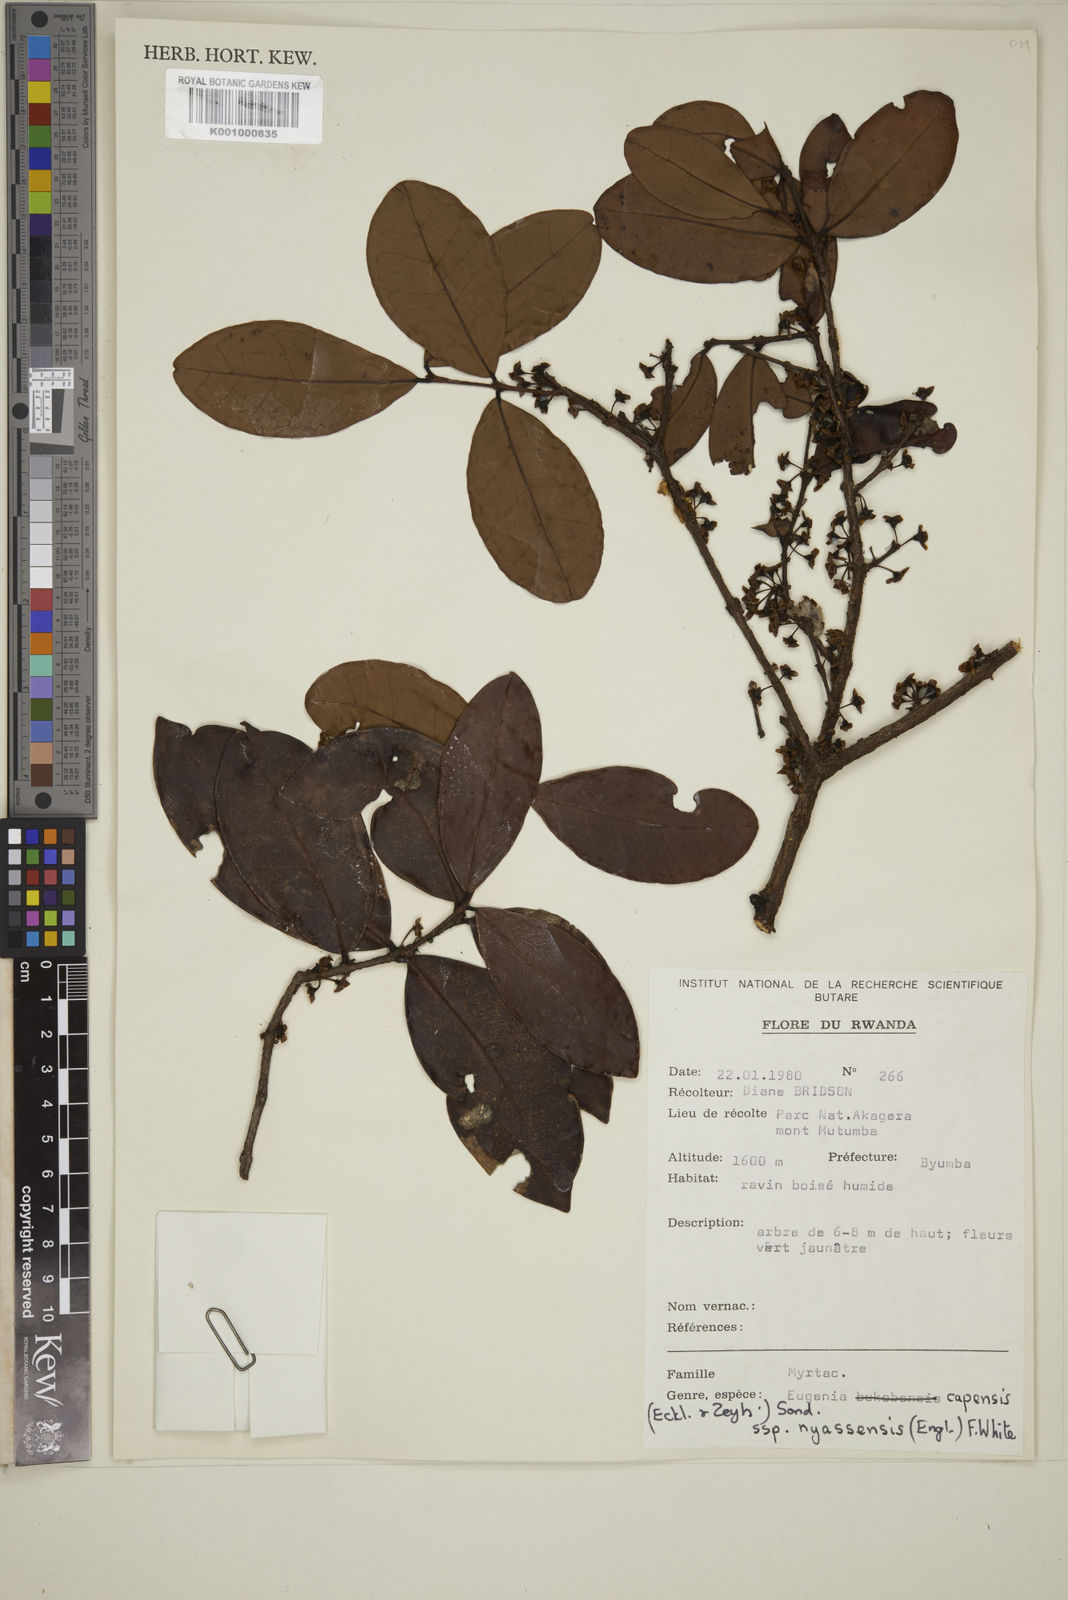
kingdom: Plantae
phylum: Tracheophyta
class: Magnoliopsida
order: Myrtales
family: Myrtaceae
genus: Eugenia
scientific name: Eugenia bukobensis
